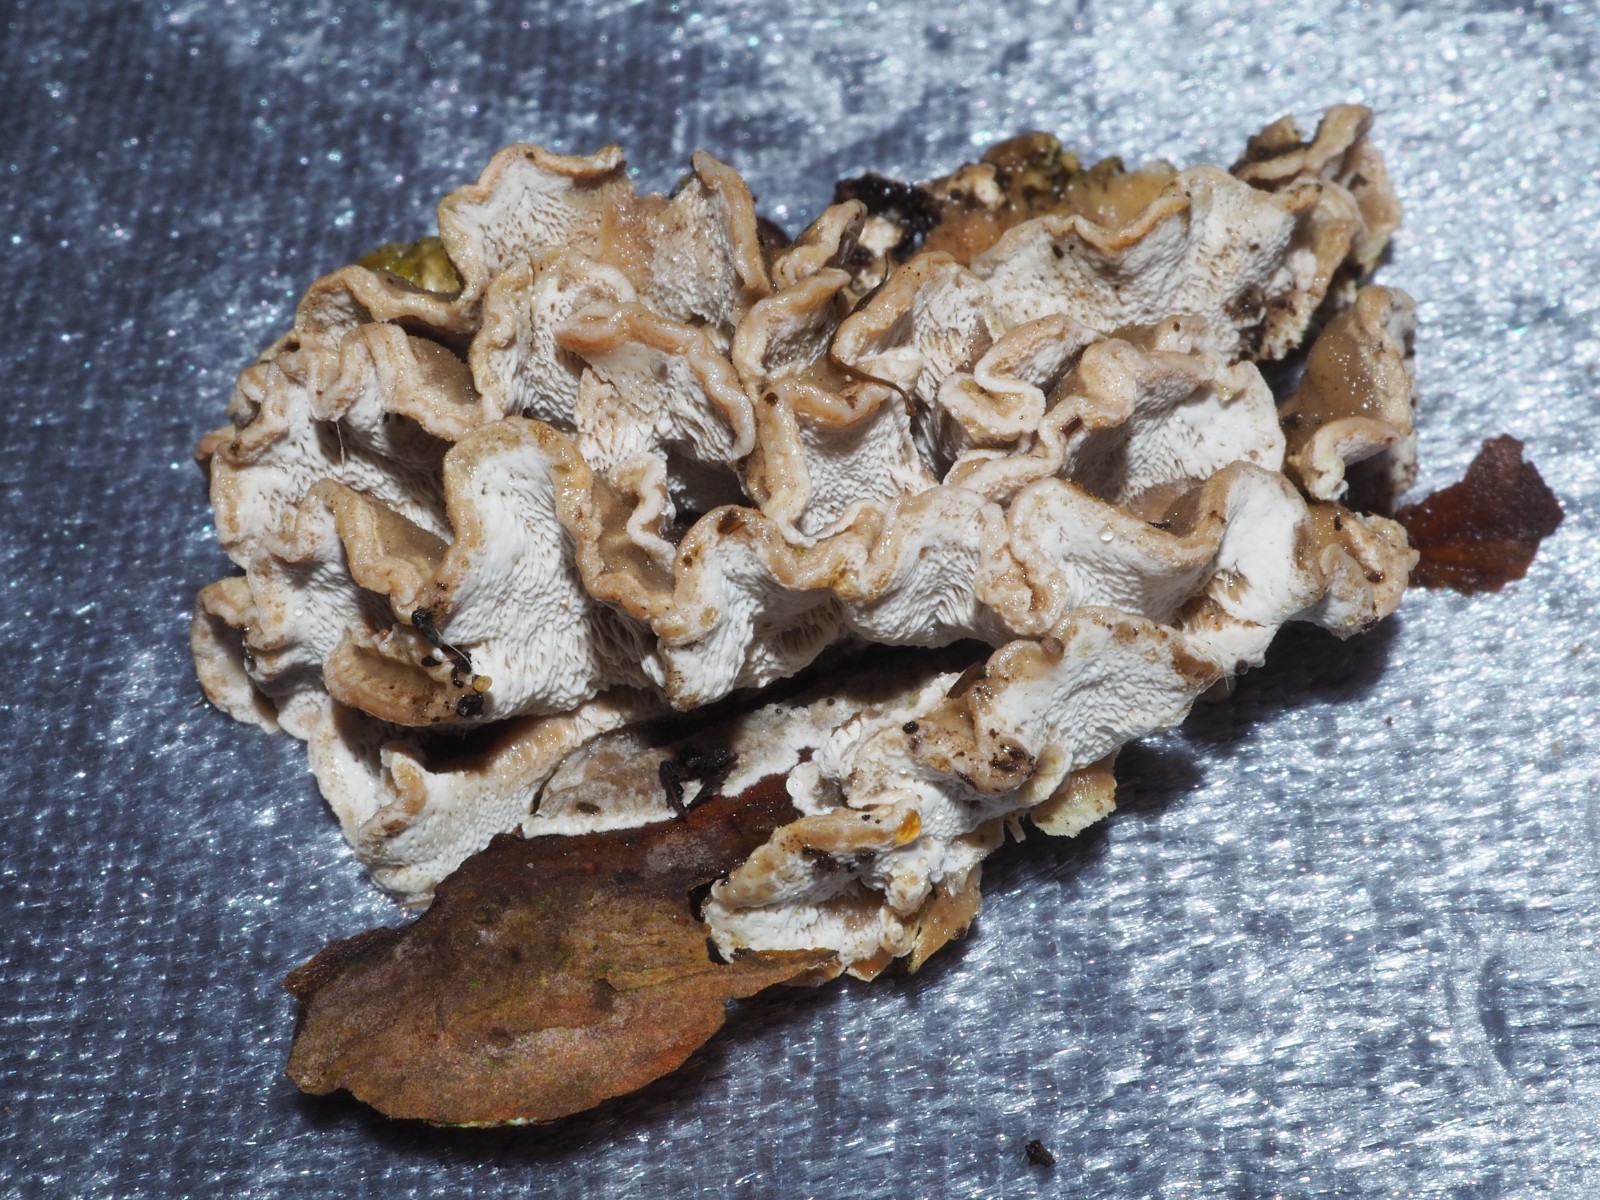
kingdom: Fungi
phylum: Basidiomycota
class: Agaricomycetes
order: Polyporales
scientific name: Polyporales
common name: poresvampordenen
